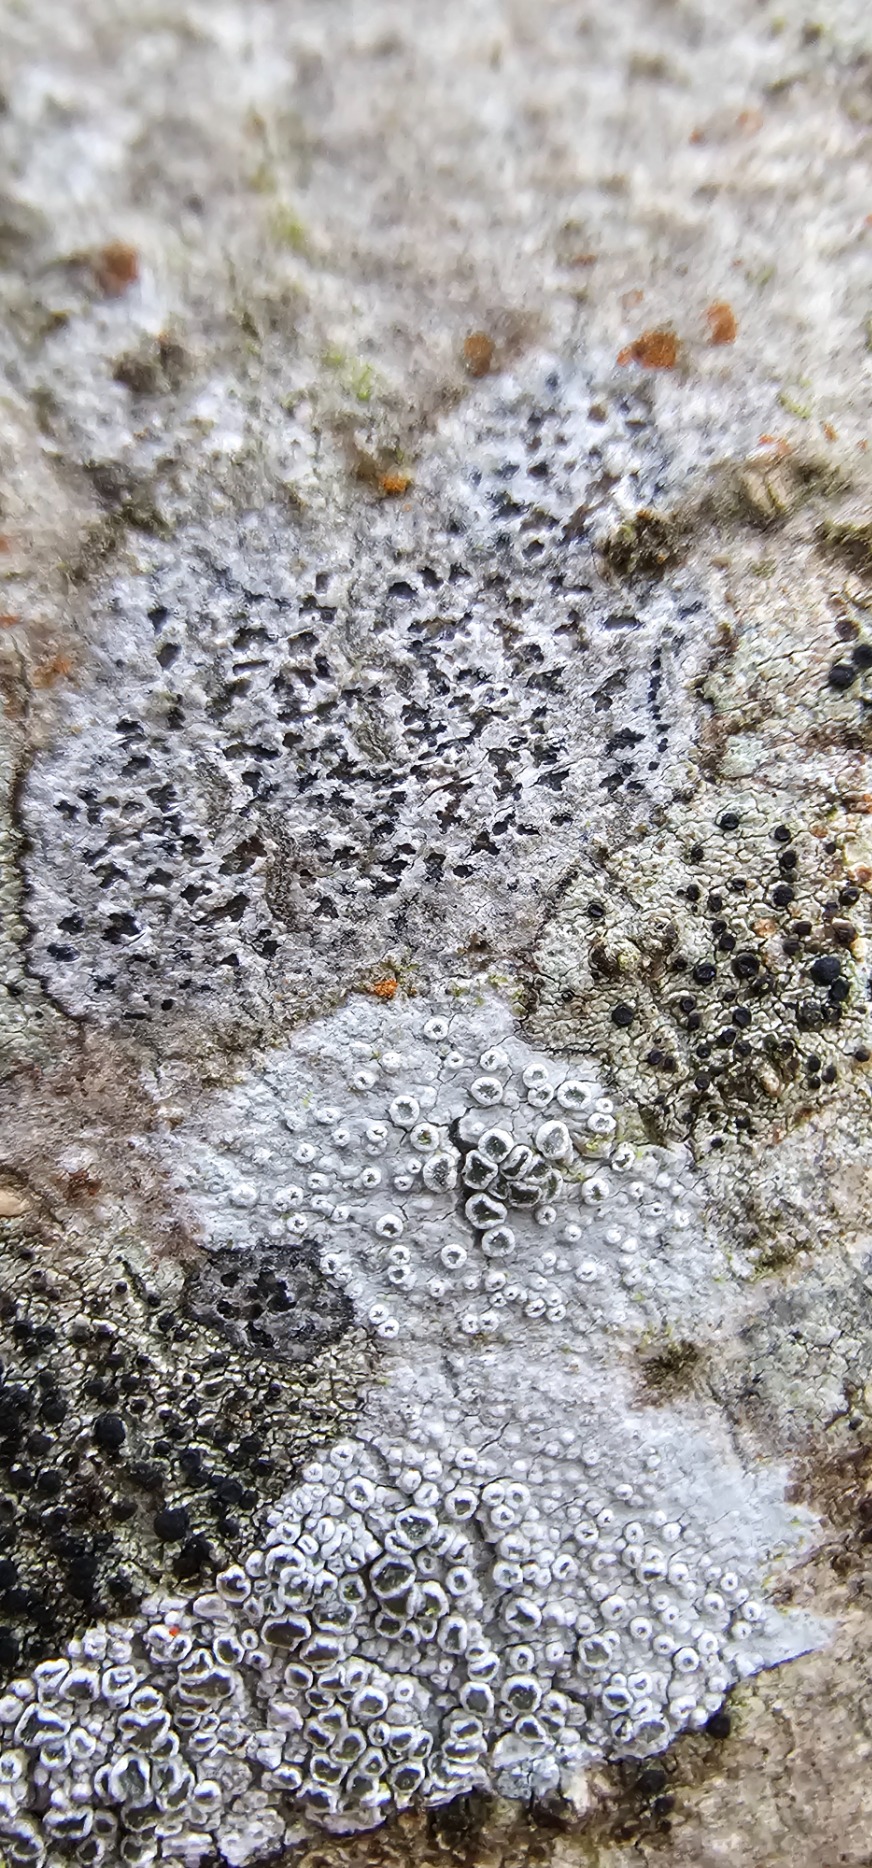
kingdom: Fungi
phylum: Ascomycota
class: Arthoniomycetes
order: Arthoniales
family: Arthoniaceae
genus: Arthonia
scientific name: Arthonia radiata
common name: Stjerne-pletlav
